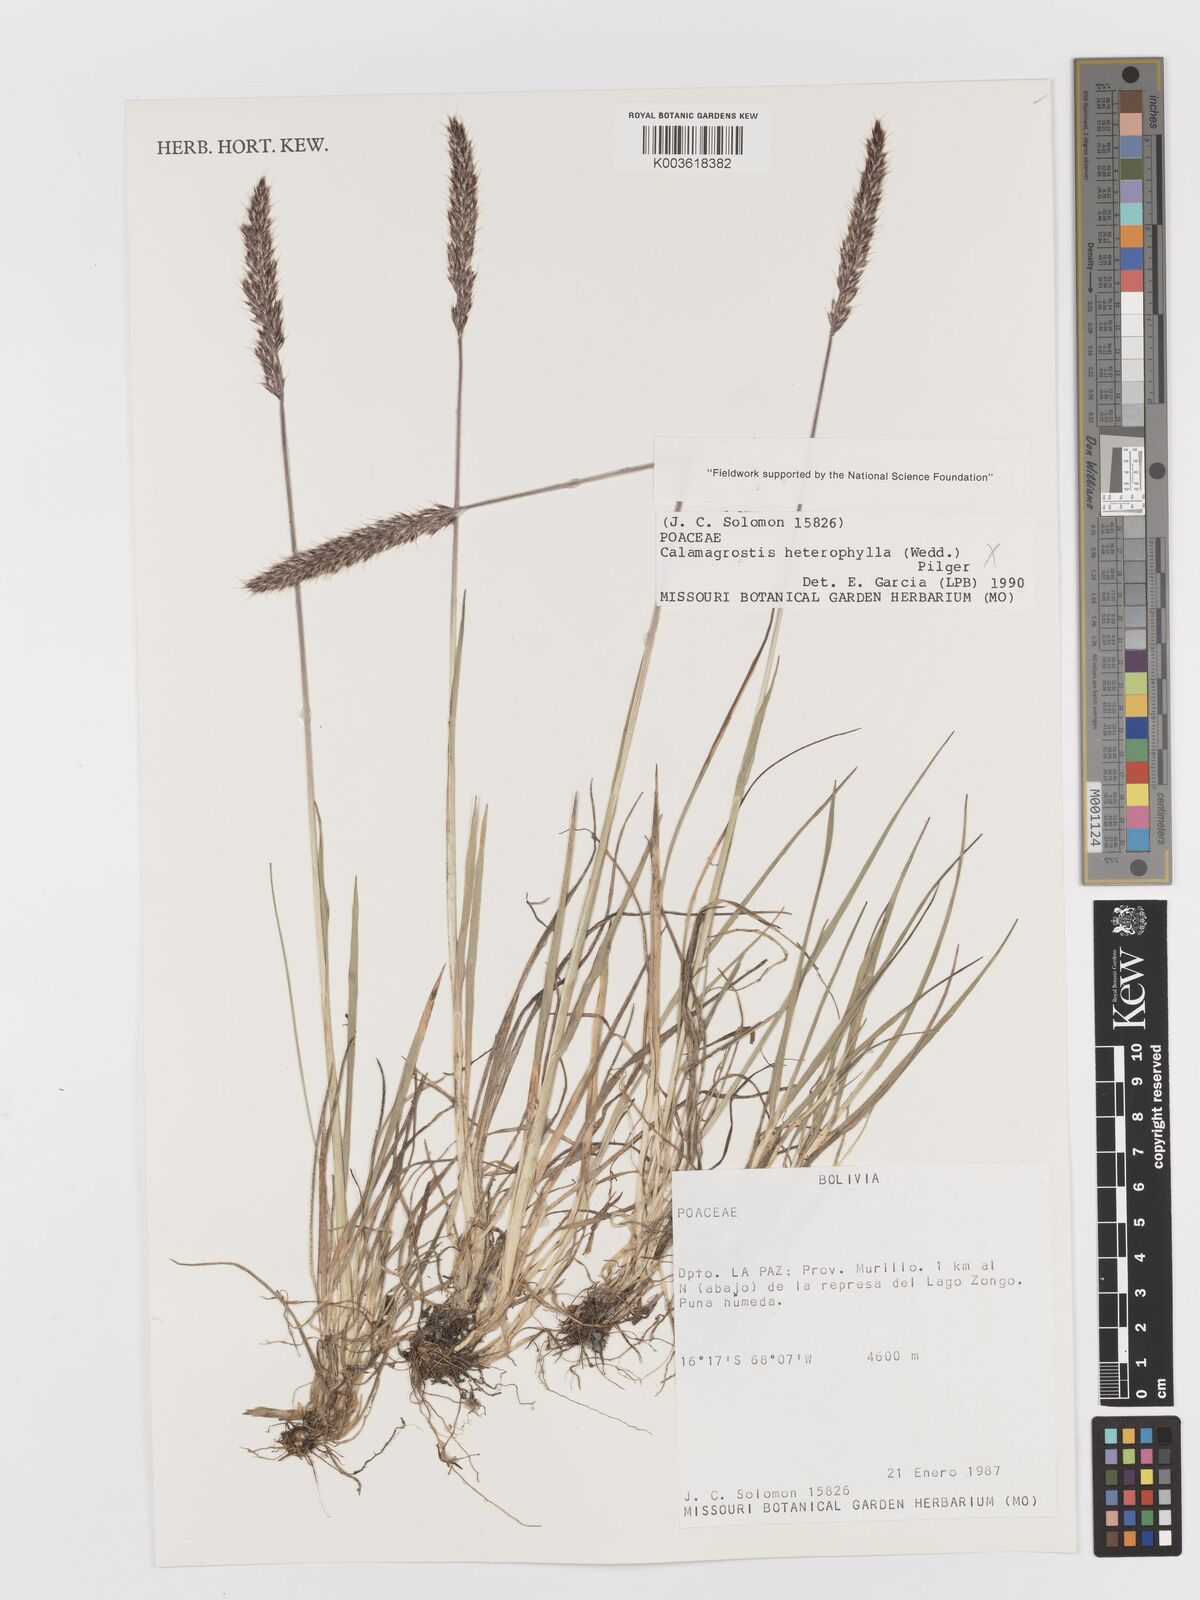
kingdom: Plantae
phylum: Tracheophyta
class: Liliopsida
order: Poales
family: Poaceae
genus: Koeleria
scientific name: Koeleria kurtzii
